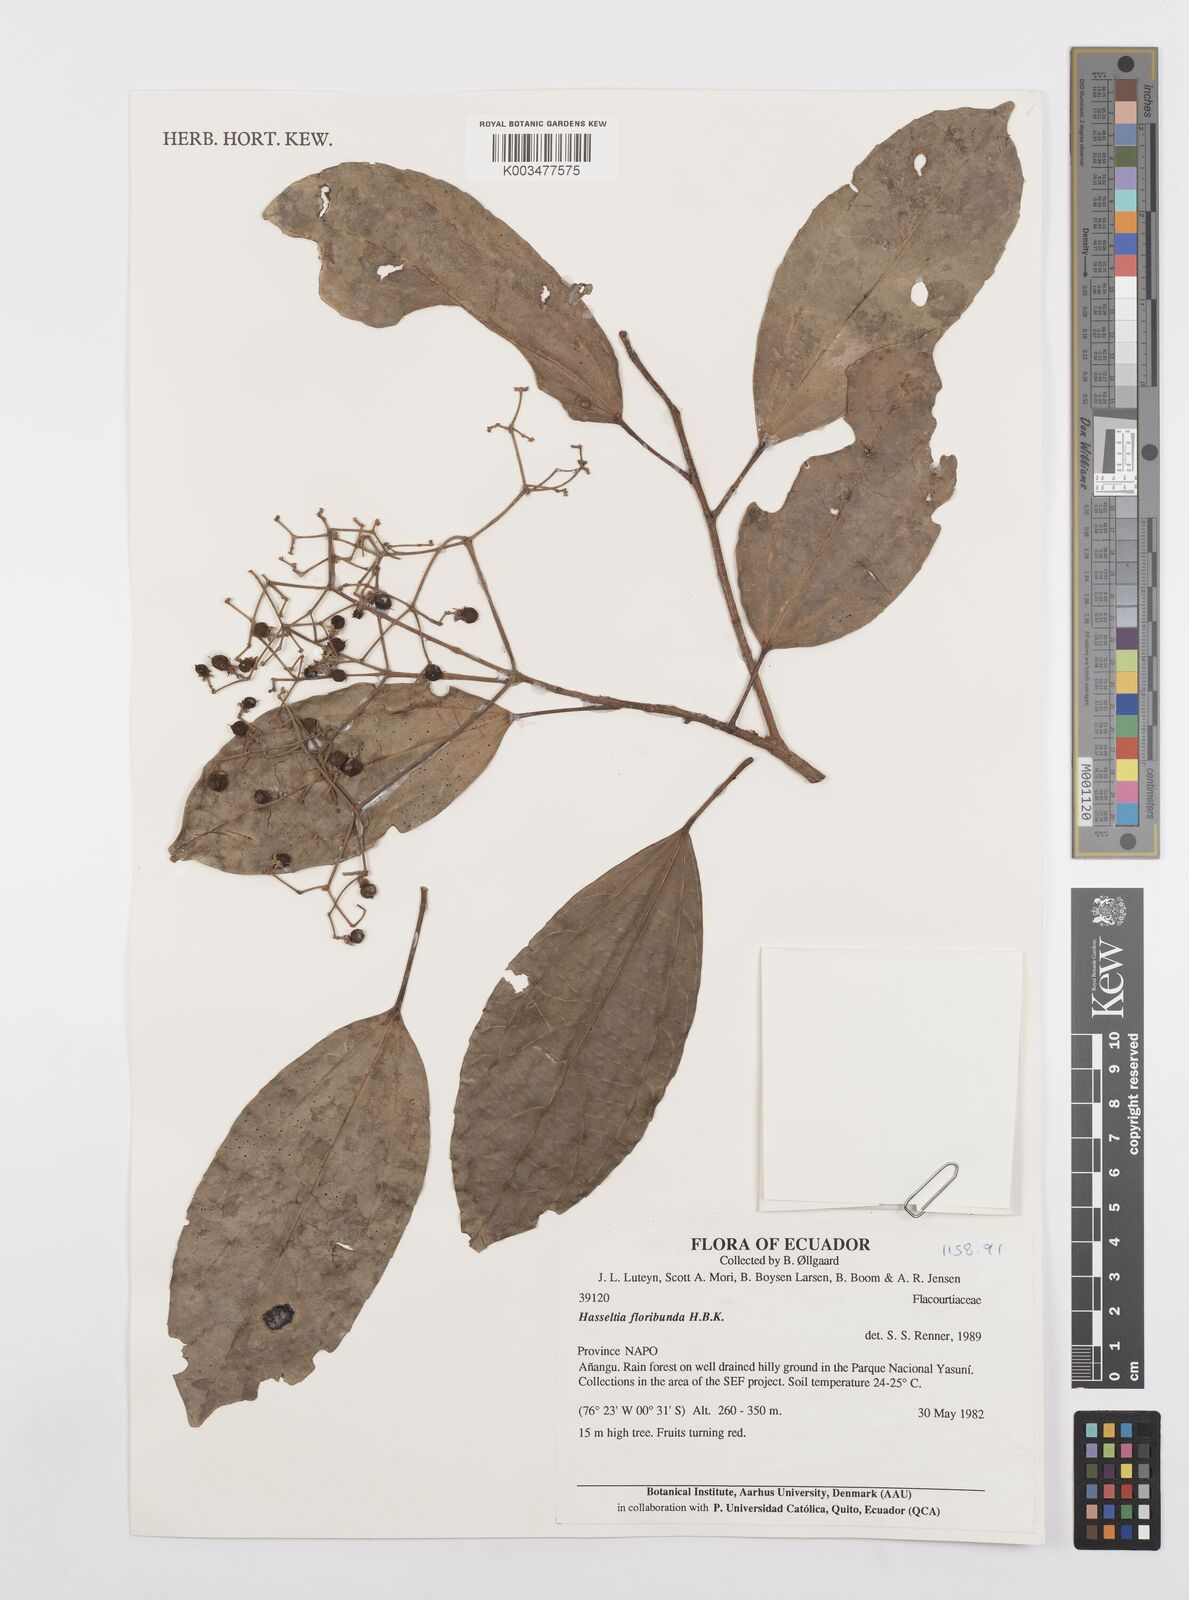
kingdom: Plantae
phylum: Tracheophyta
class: Magnoliopsida
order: Malpighiales
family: Salicaceae
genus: Hasseltia
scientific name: Hasseltia floribunda
